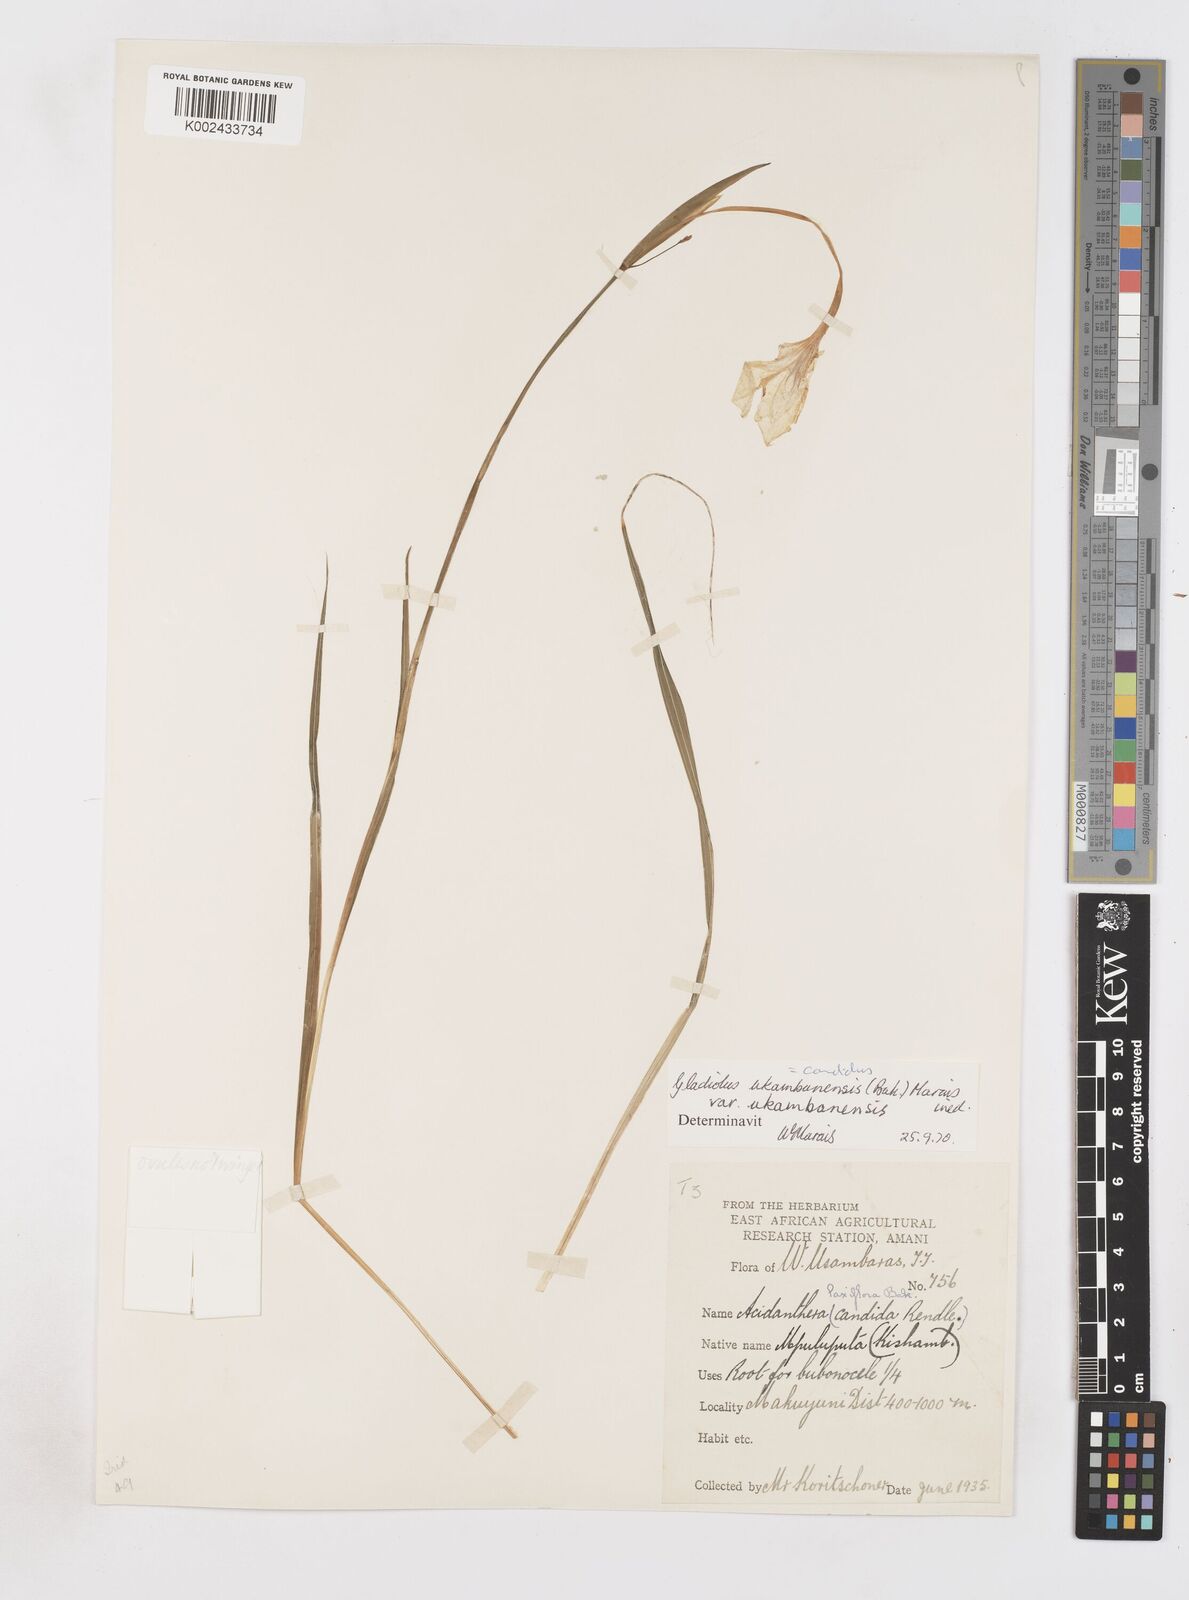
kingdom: Plantae
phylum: Tracheophyta
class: Liliopsida
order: Asparagales
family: Iridaceae
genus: Gladiolus
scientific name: Gladiolus candidus
